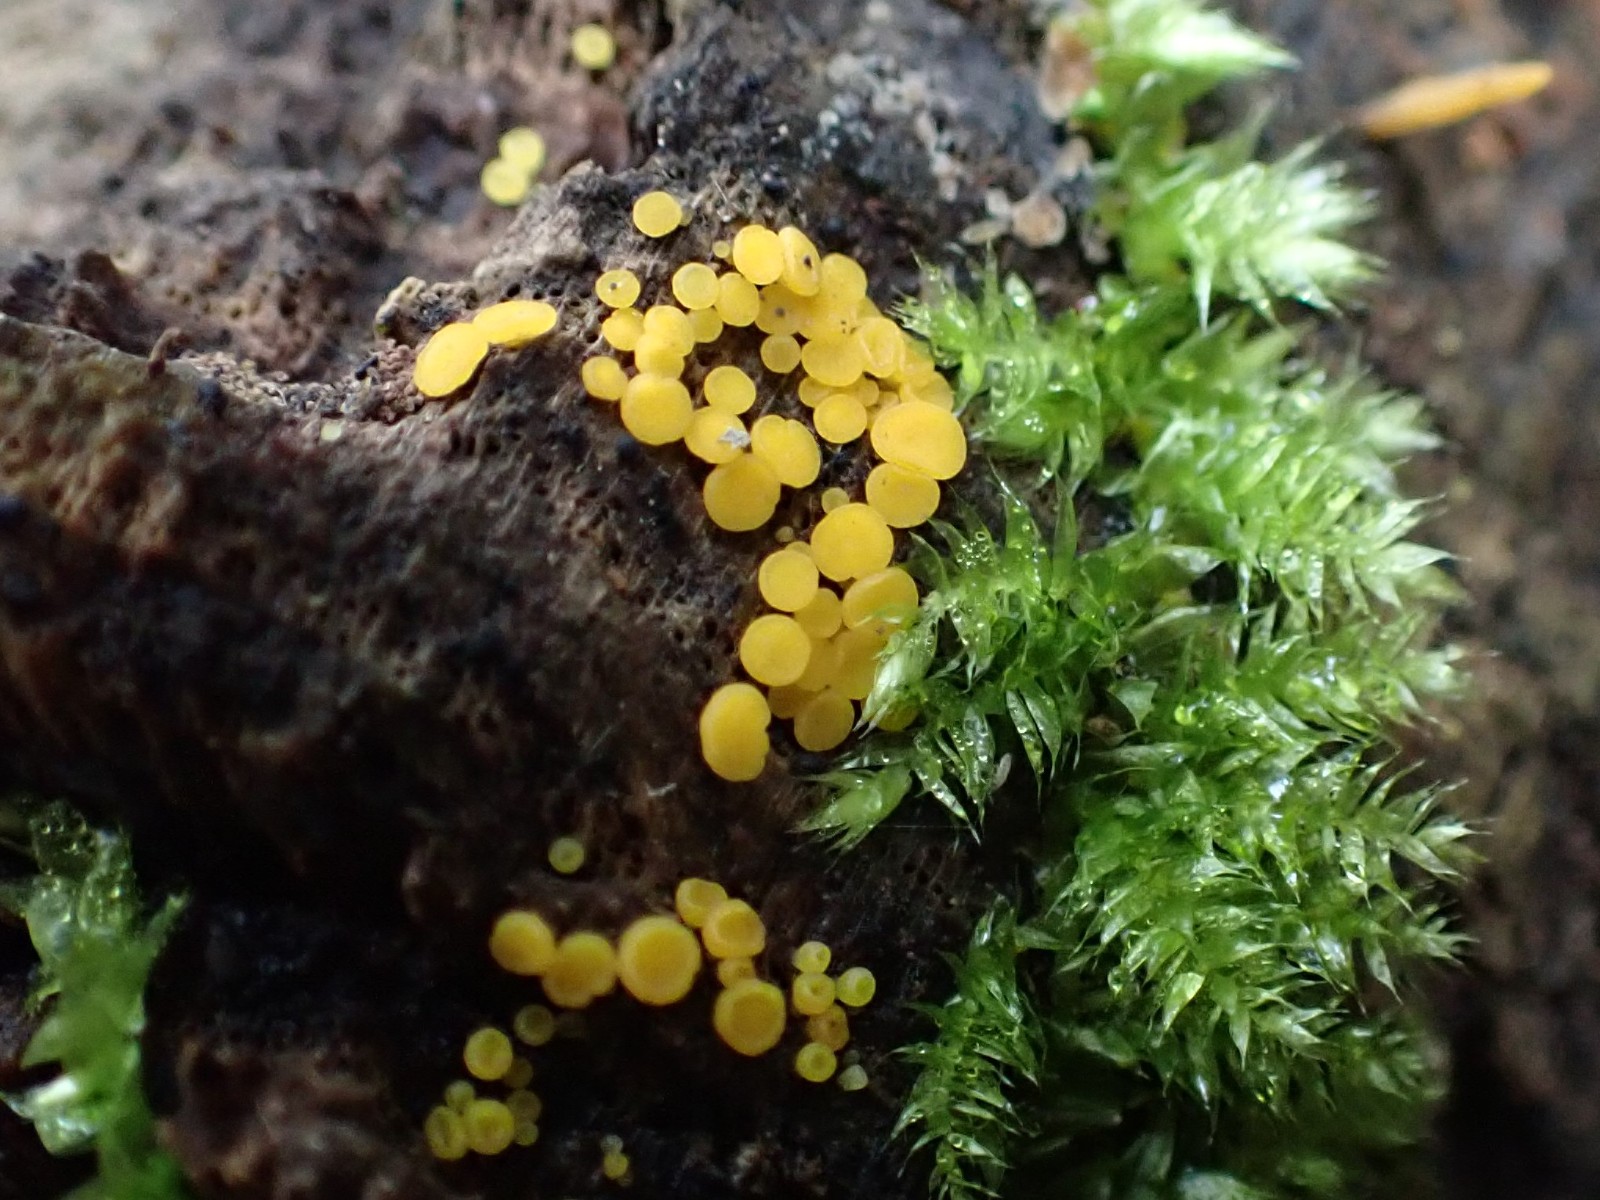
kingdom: Fungi
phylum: Ascomycota
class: Leotiomycetes
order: Helotiales
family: Pezizellaceae
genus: Calycina
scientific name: Calycina citrina
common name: almindelig gulskive
